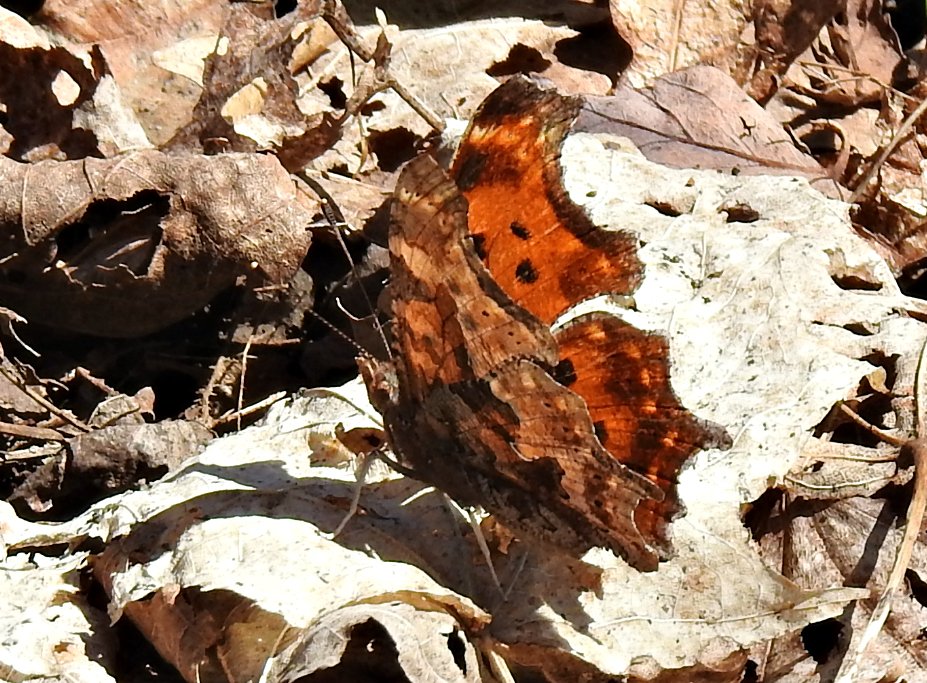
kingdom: Animalia
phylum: Arthropoda
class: Insecta
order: Lepidoptera
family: Nymphalidae
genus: Polygonia
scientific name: Polygonia comma
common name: Eastern Comma
